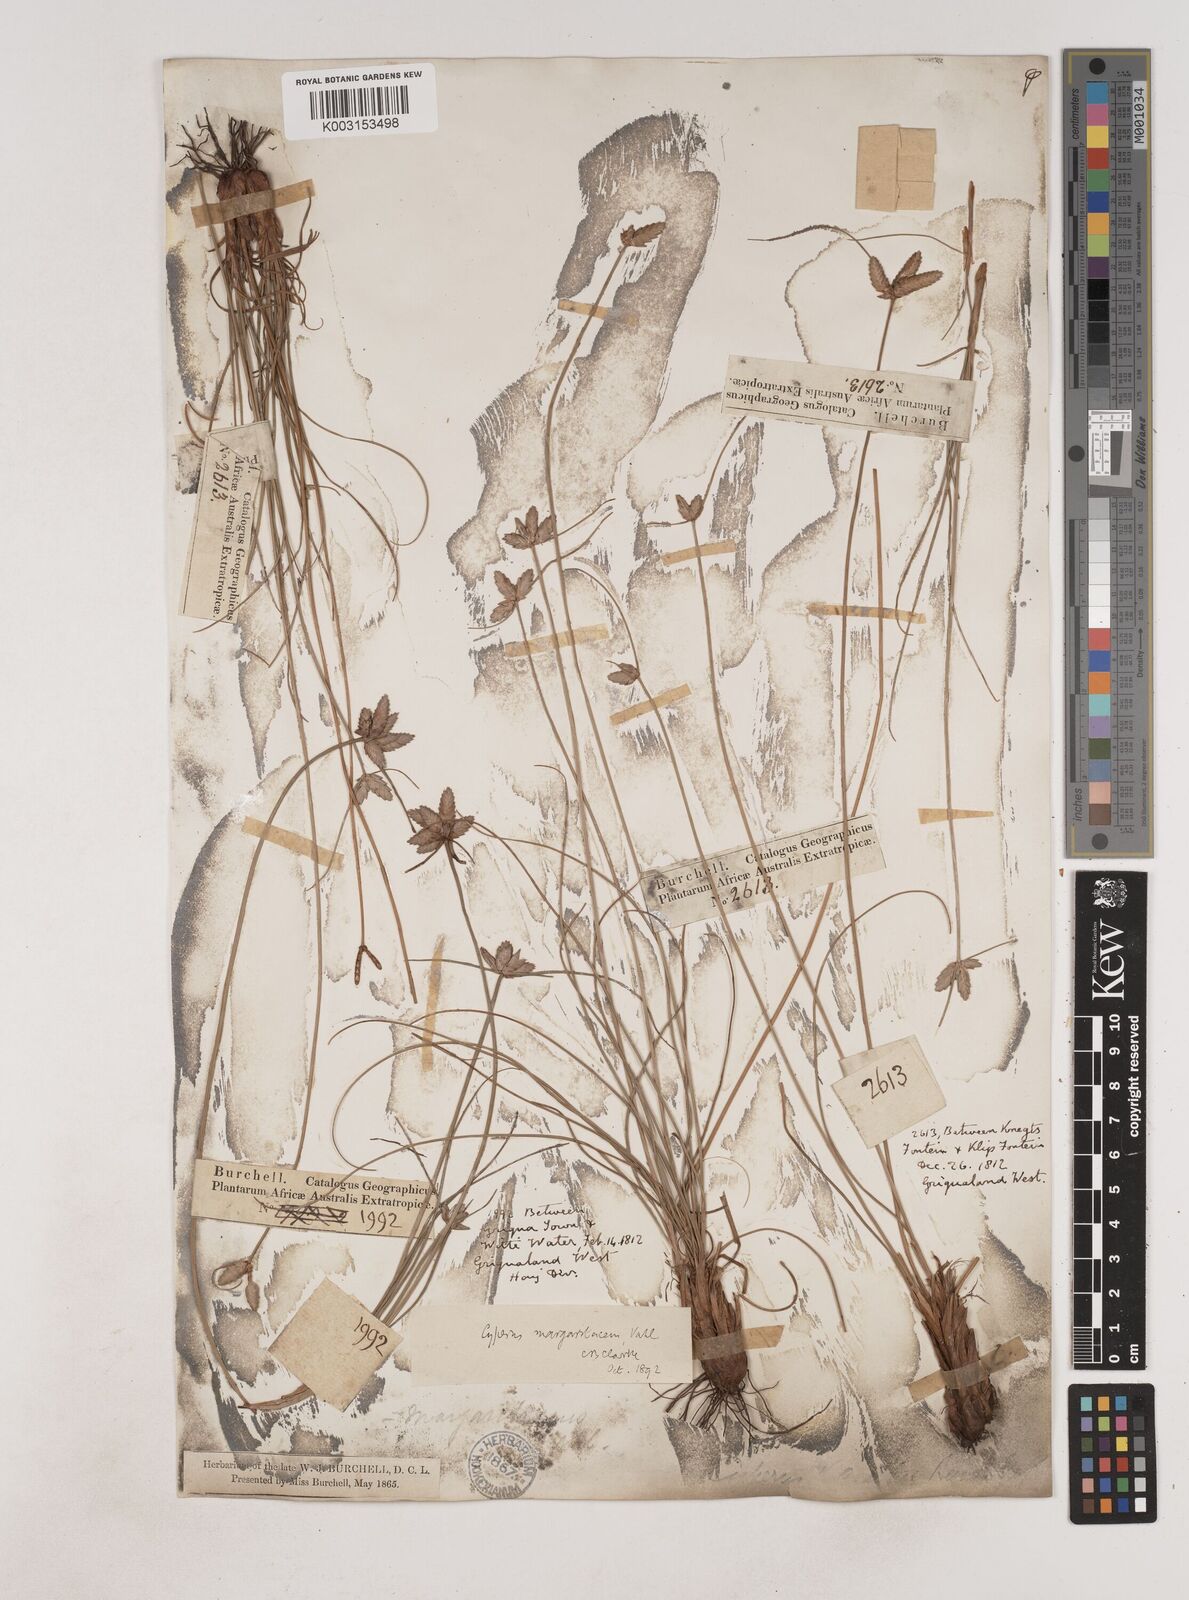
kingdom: Plantae
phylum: Tracheophyta
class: Liliopsida
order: Poales
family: Cyperaceae
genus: Cyperus
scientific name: Cyperus margaritaceus
